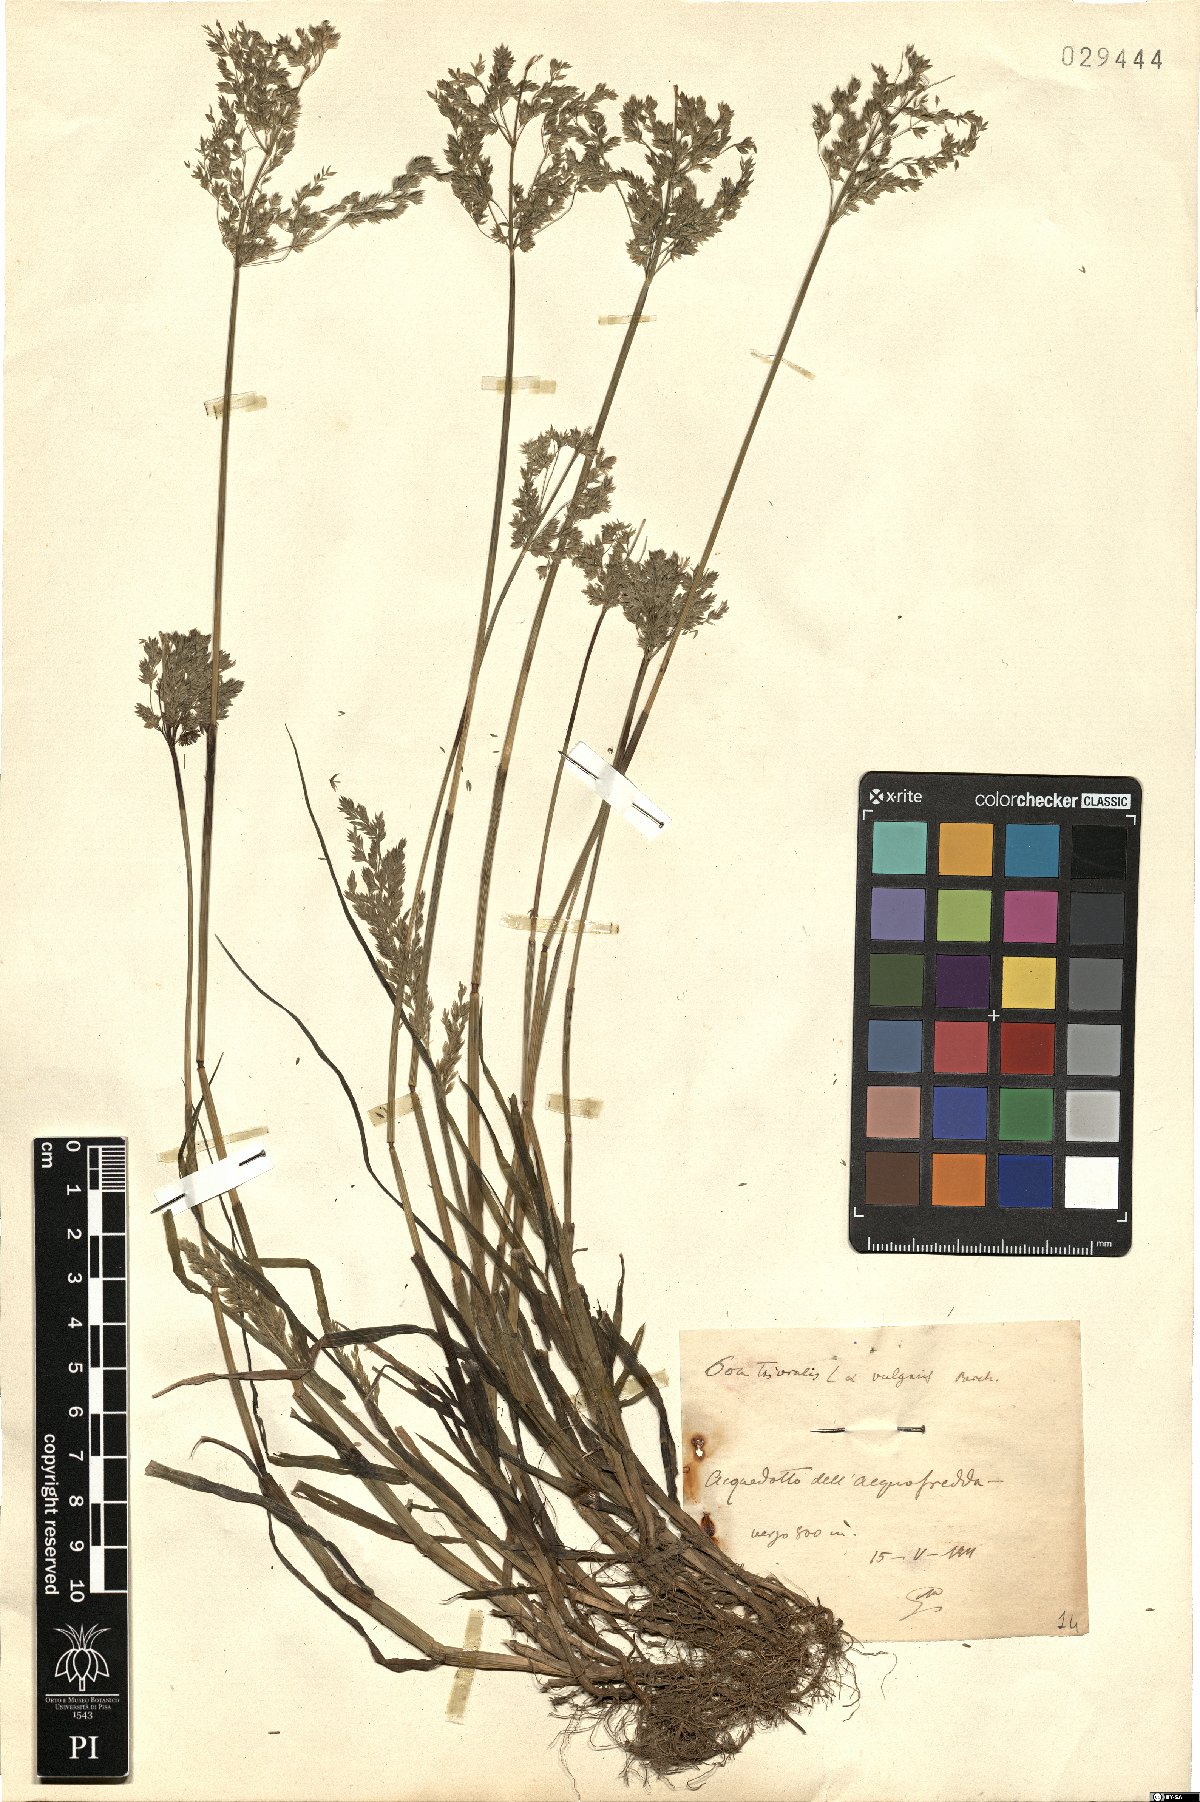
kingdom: Plantae
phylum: Tracheophyta
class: Liliopsida
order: Poales
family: Poaceae
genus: Poa
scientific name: Poa trivialis
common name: Rough bluegrass
